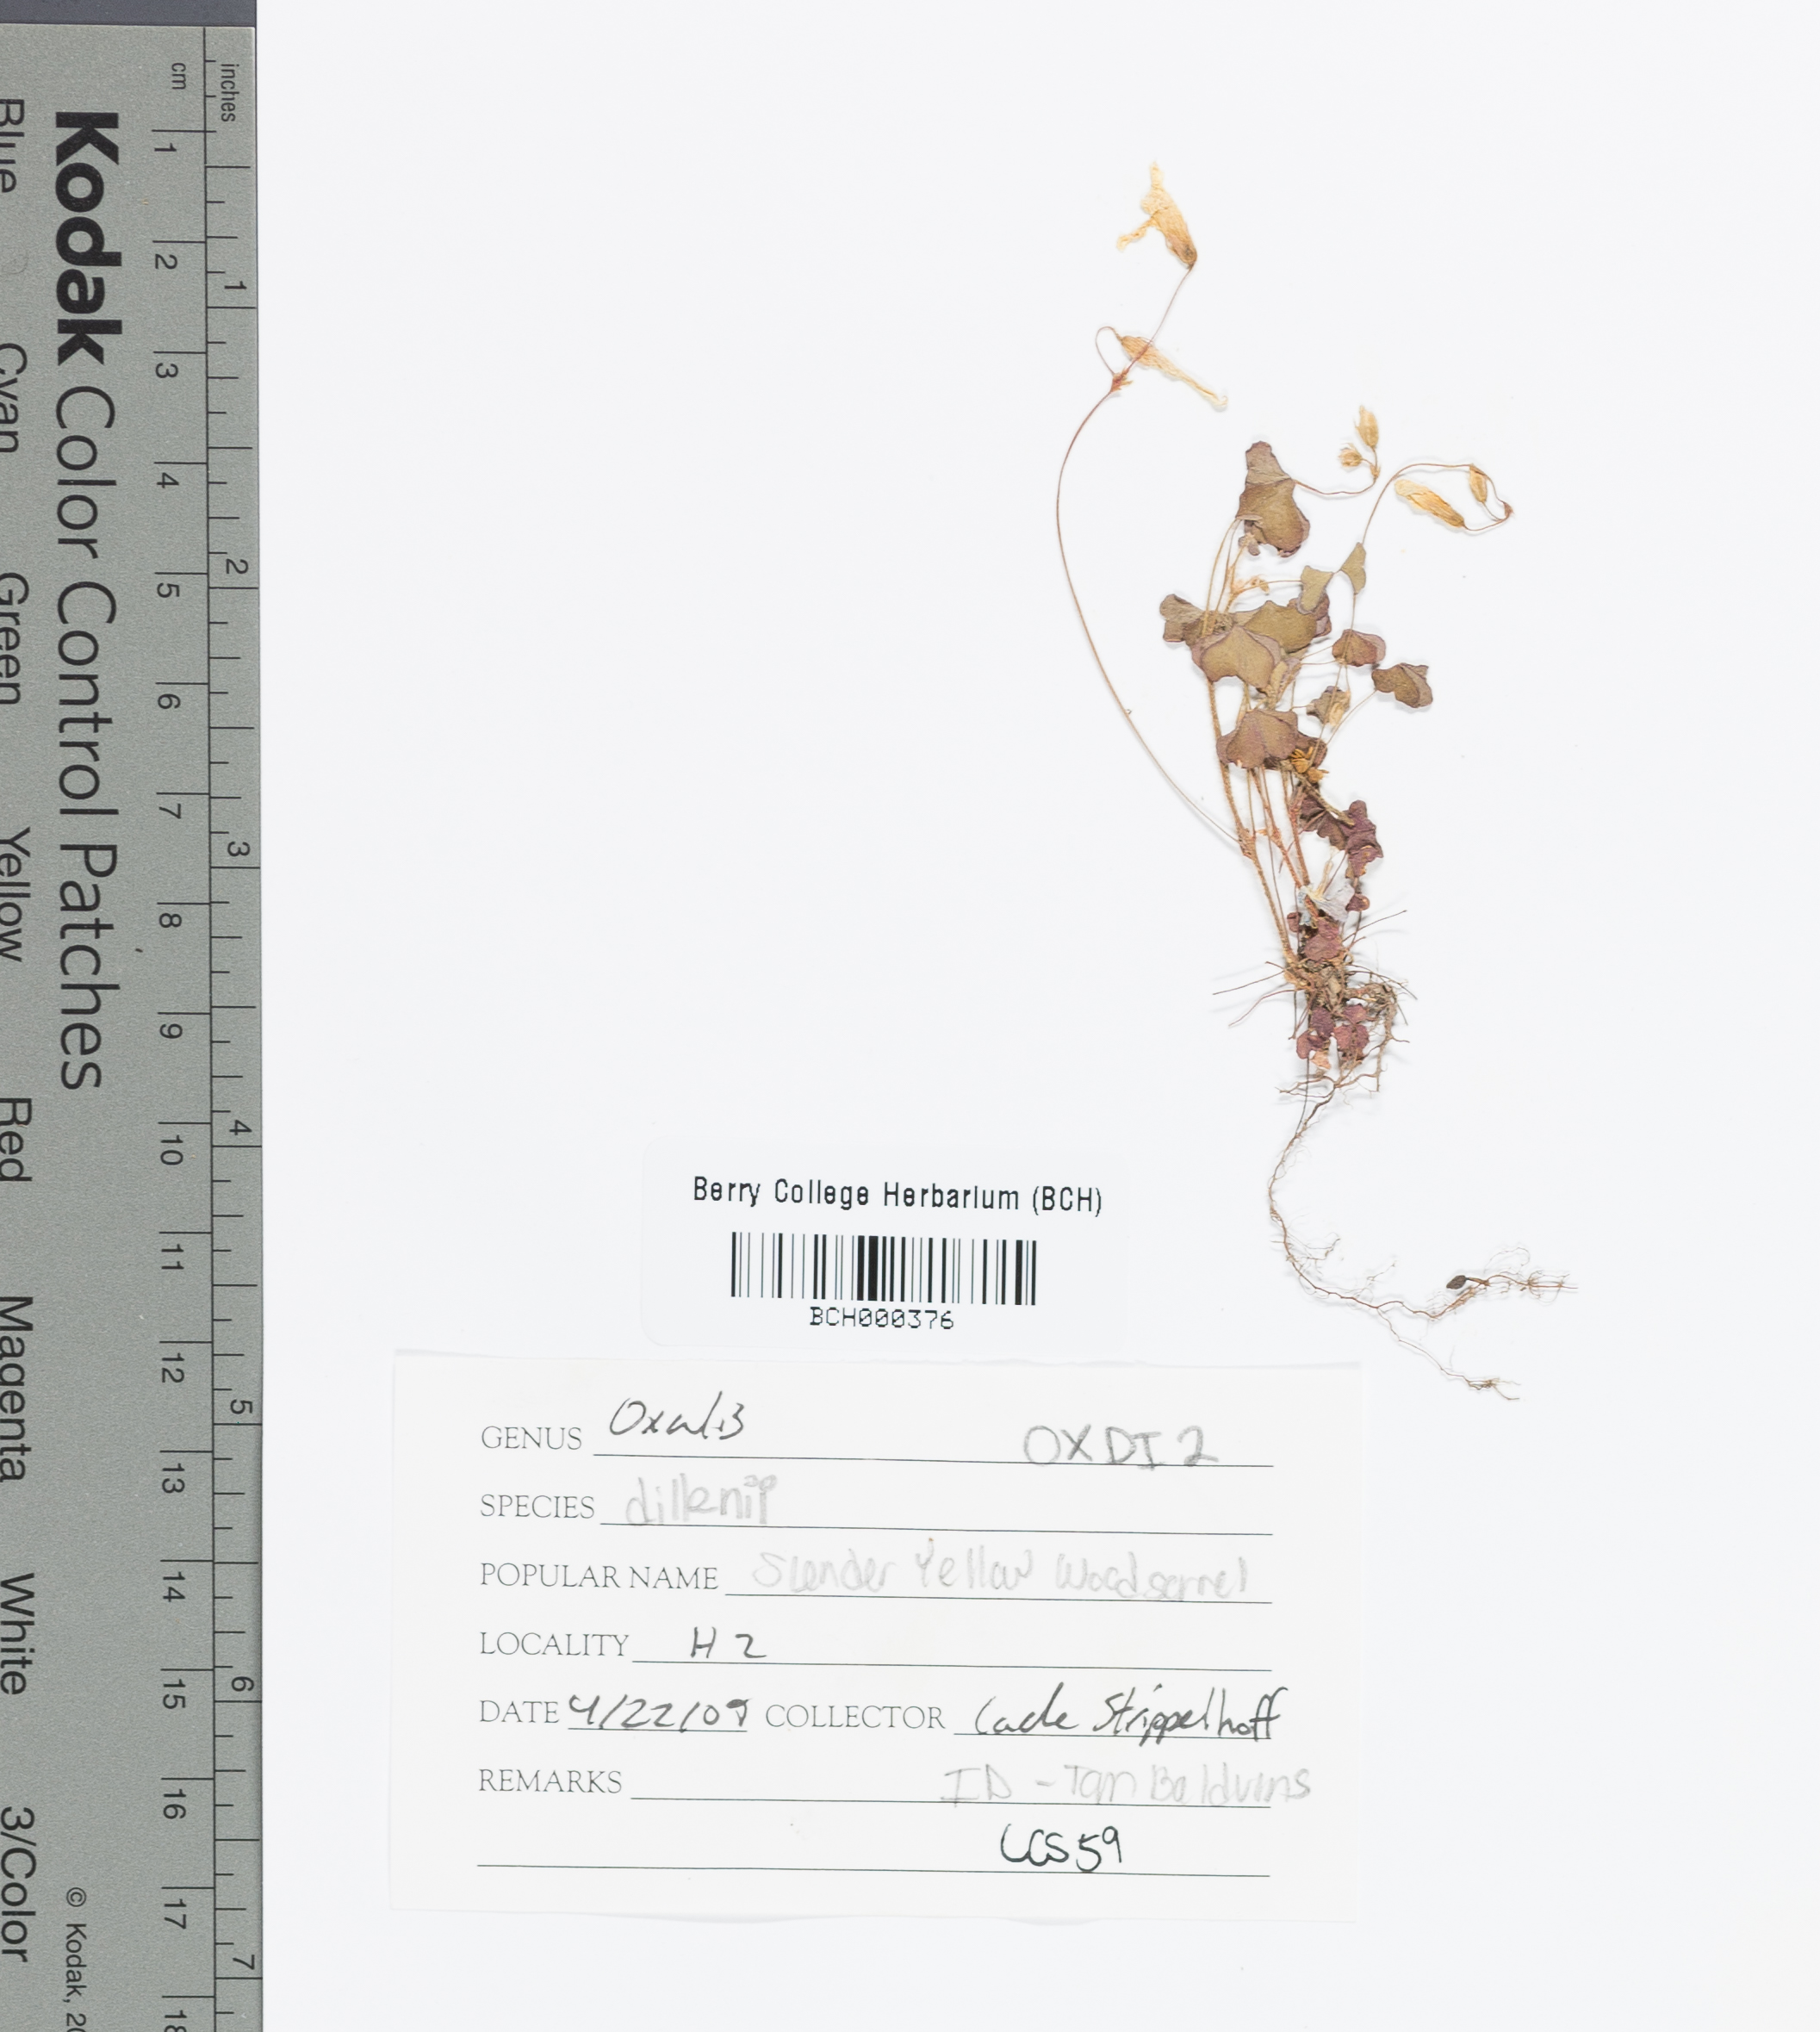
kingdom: Plantae
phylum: Tracheophyta
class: Magnoliopsida
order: Oxalidales
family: Oxalidaceae
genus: Oxalis
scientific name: Oxalis dillenii
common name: Sussex yellow-sorrel
